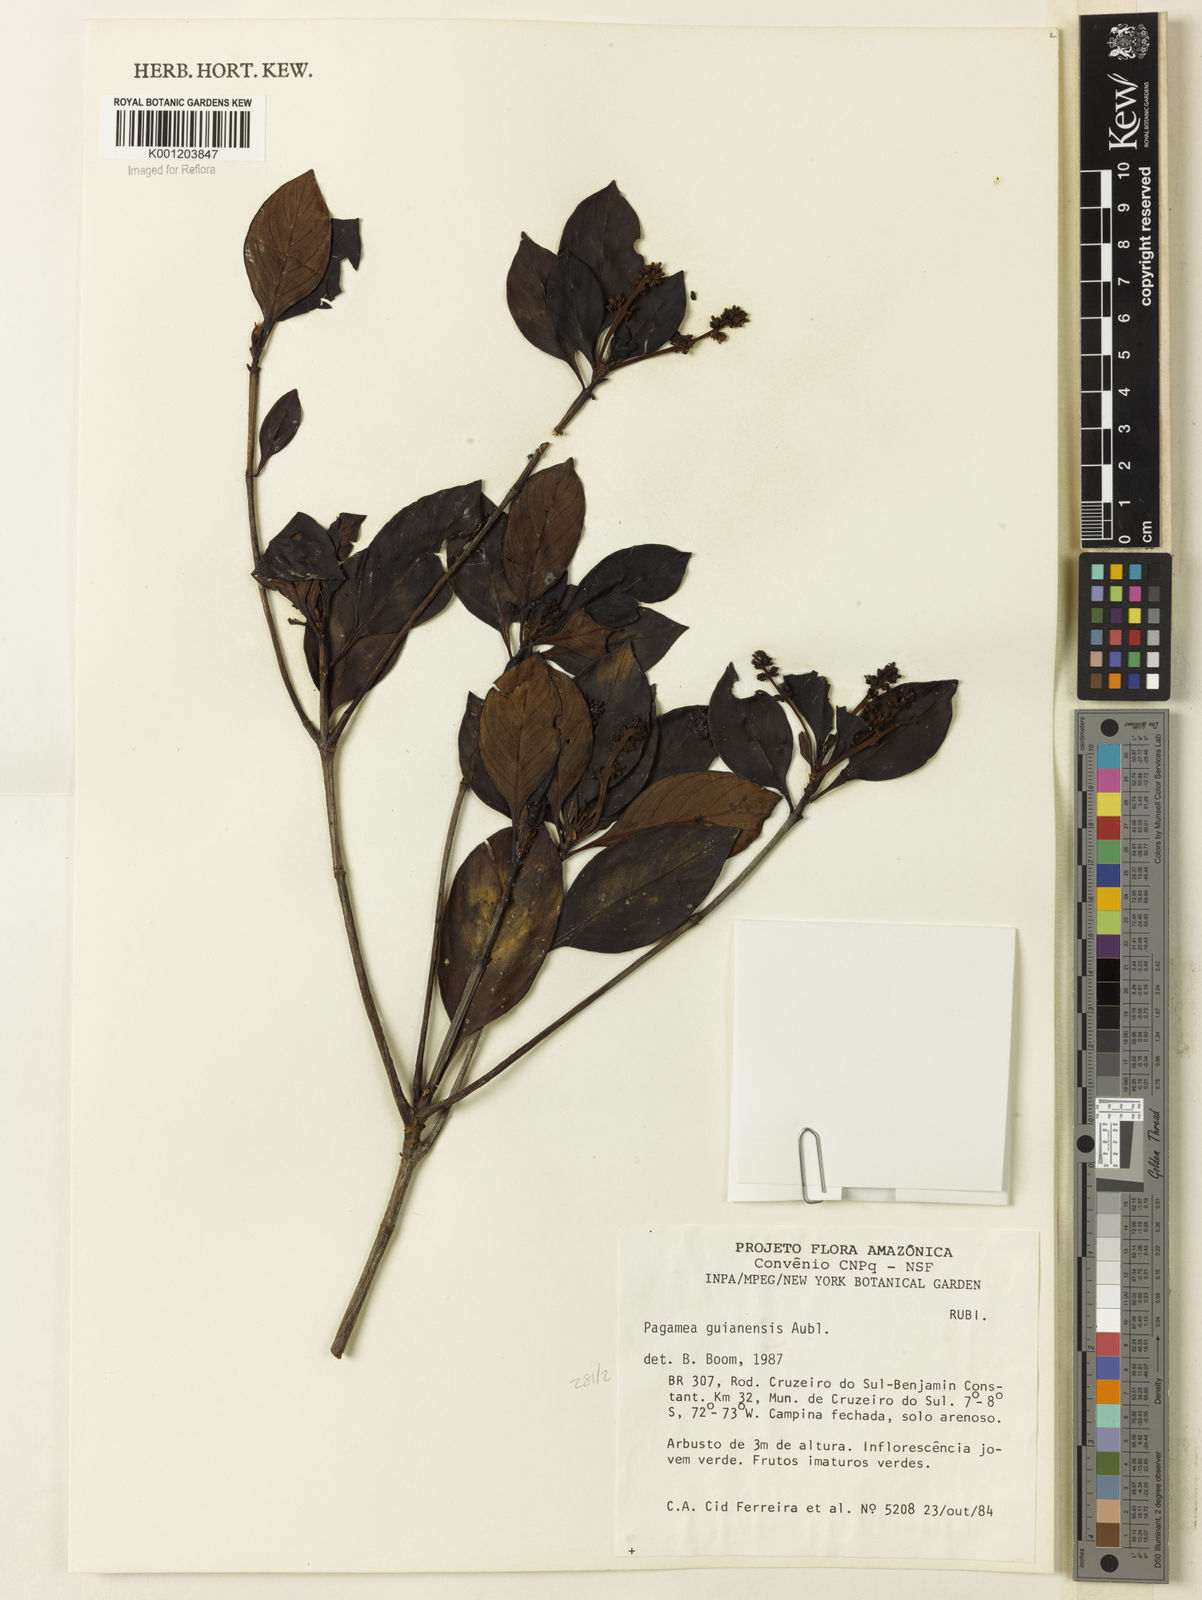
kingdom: Plantae
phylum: Tracheophyta
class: Magnoliopsida
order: Gentianales
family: Rubiaceae
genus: Pagamea
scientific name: Pagamea guianensis
